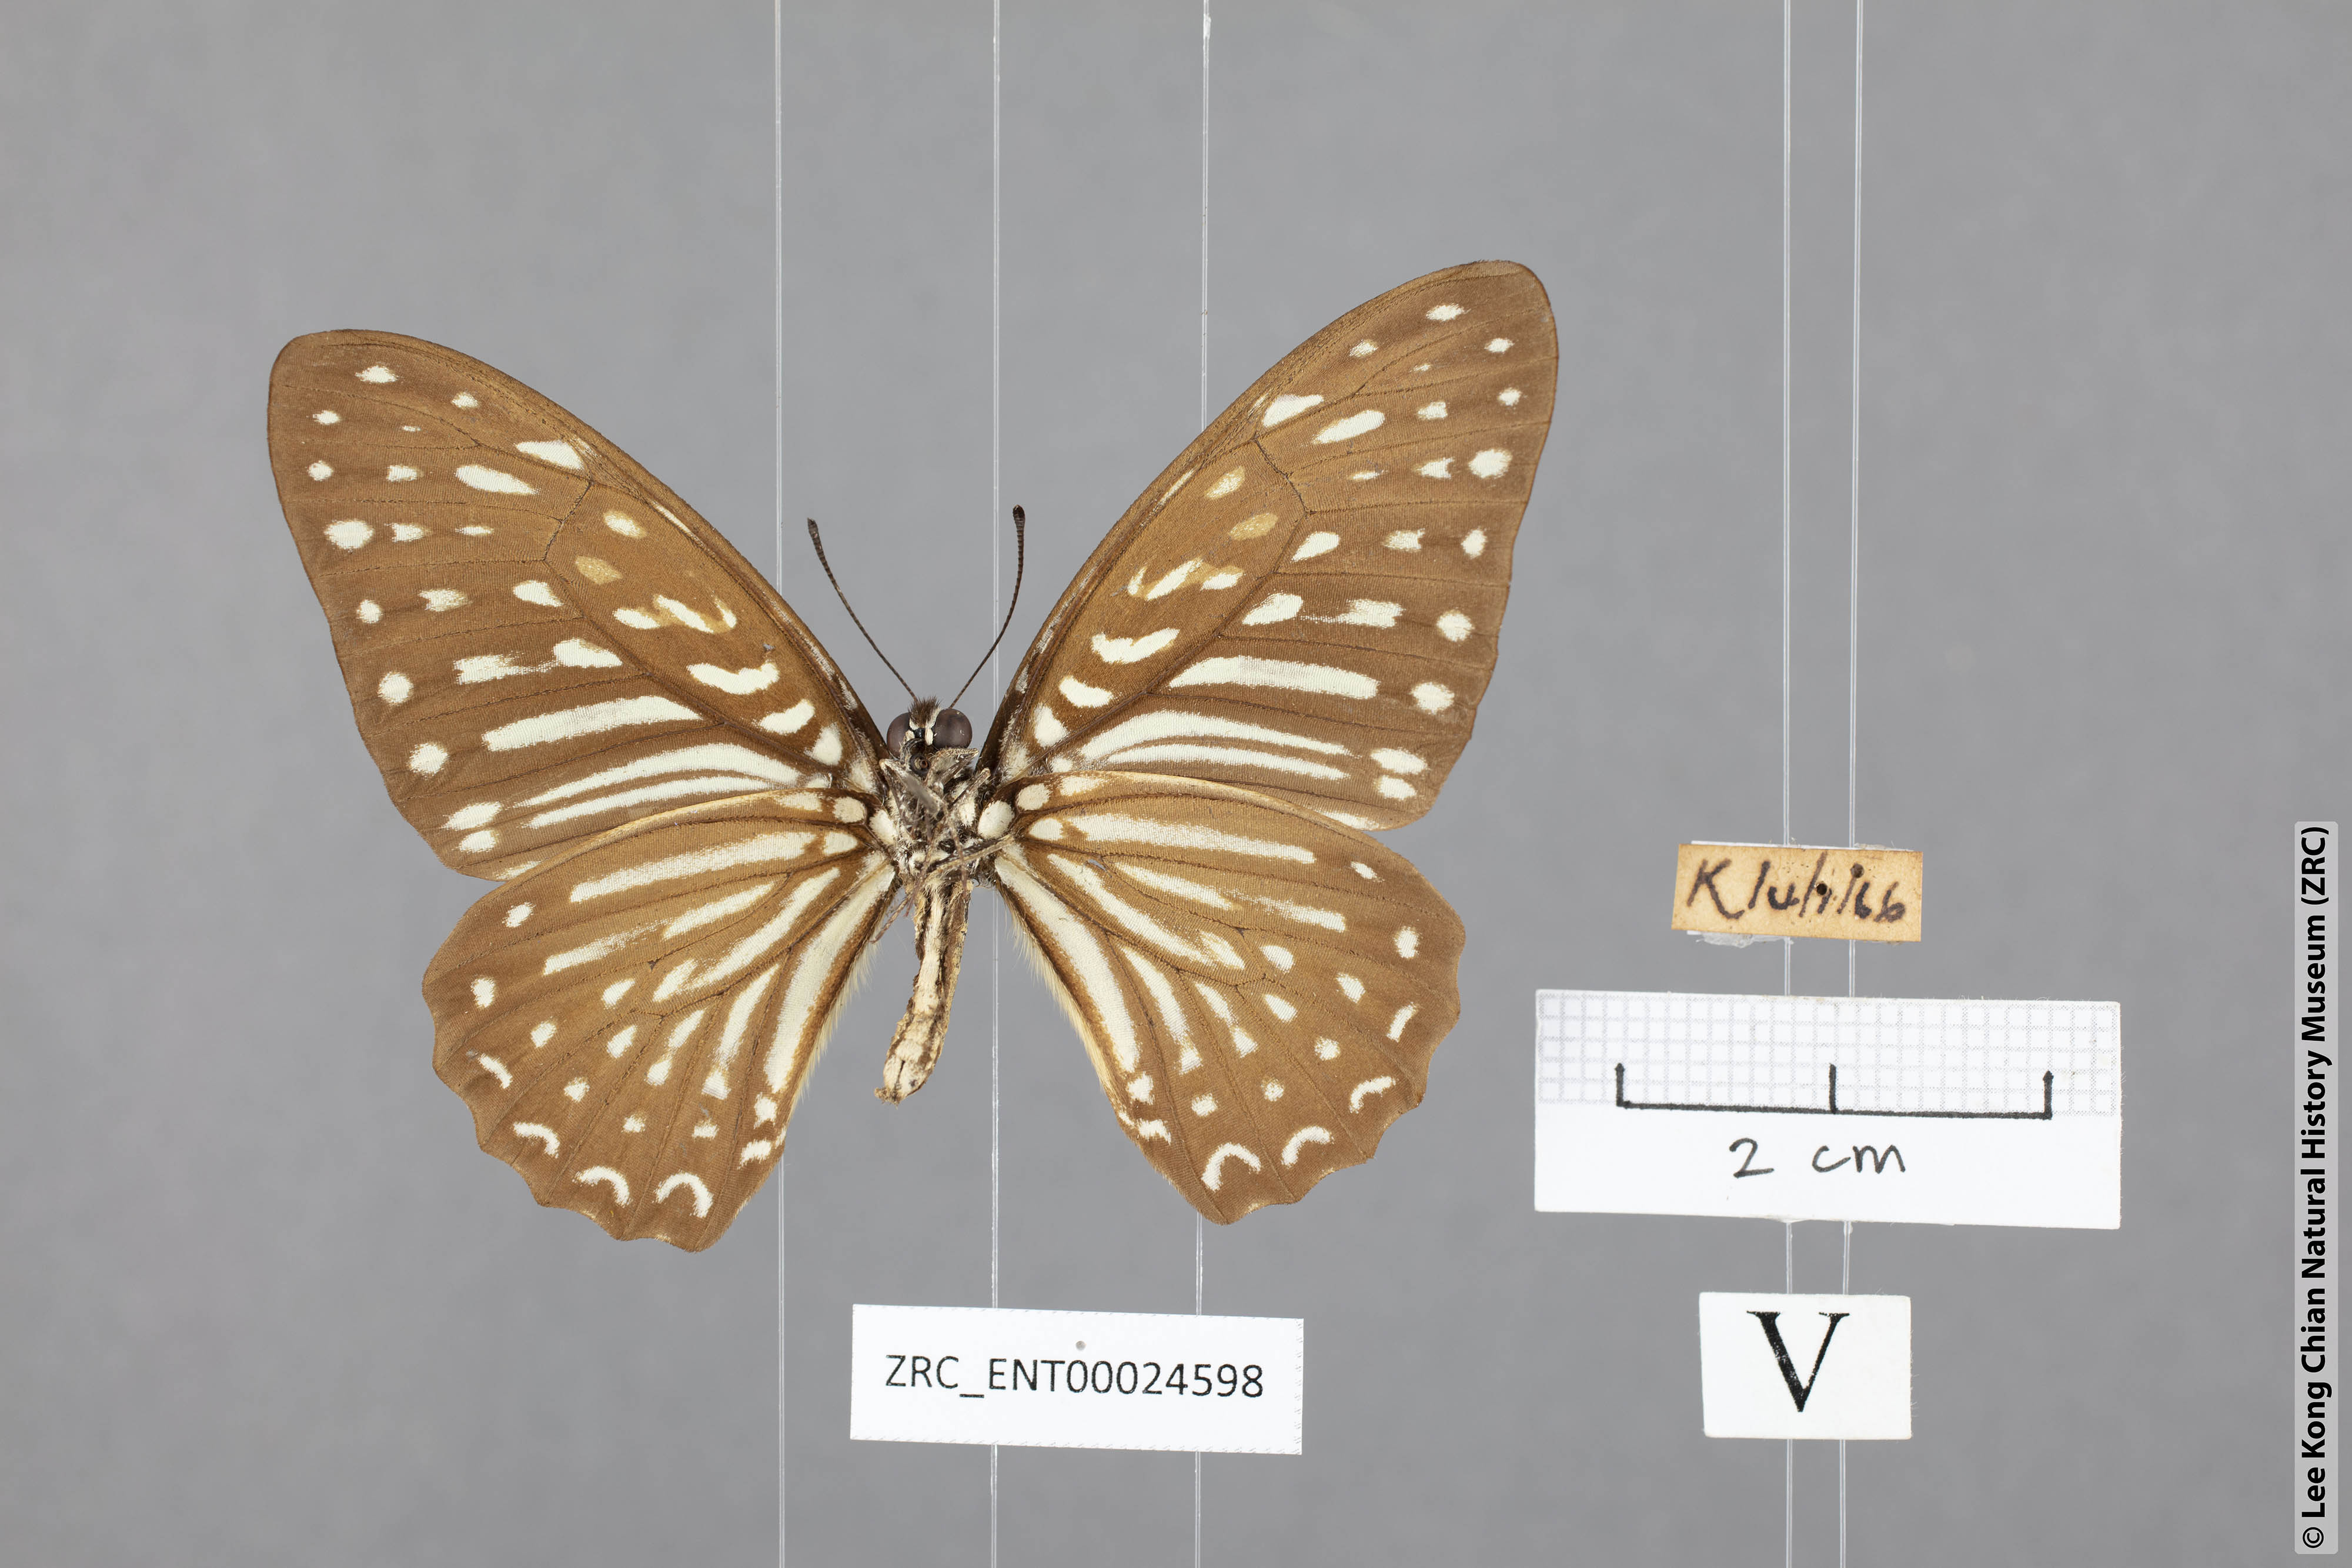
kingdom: Animalia
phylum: Arthropoda
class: Insecta
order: Lepidoptera
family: Papilionidae
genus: Graphium
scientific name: Graphium megarus
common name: Spotted zebra
